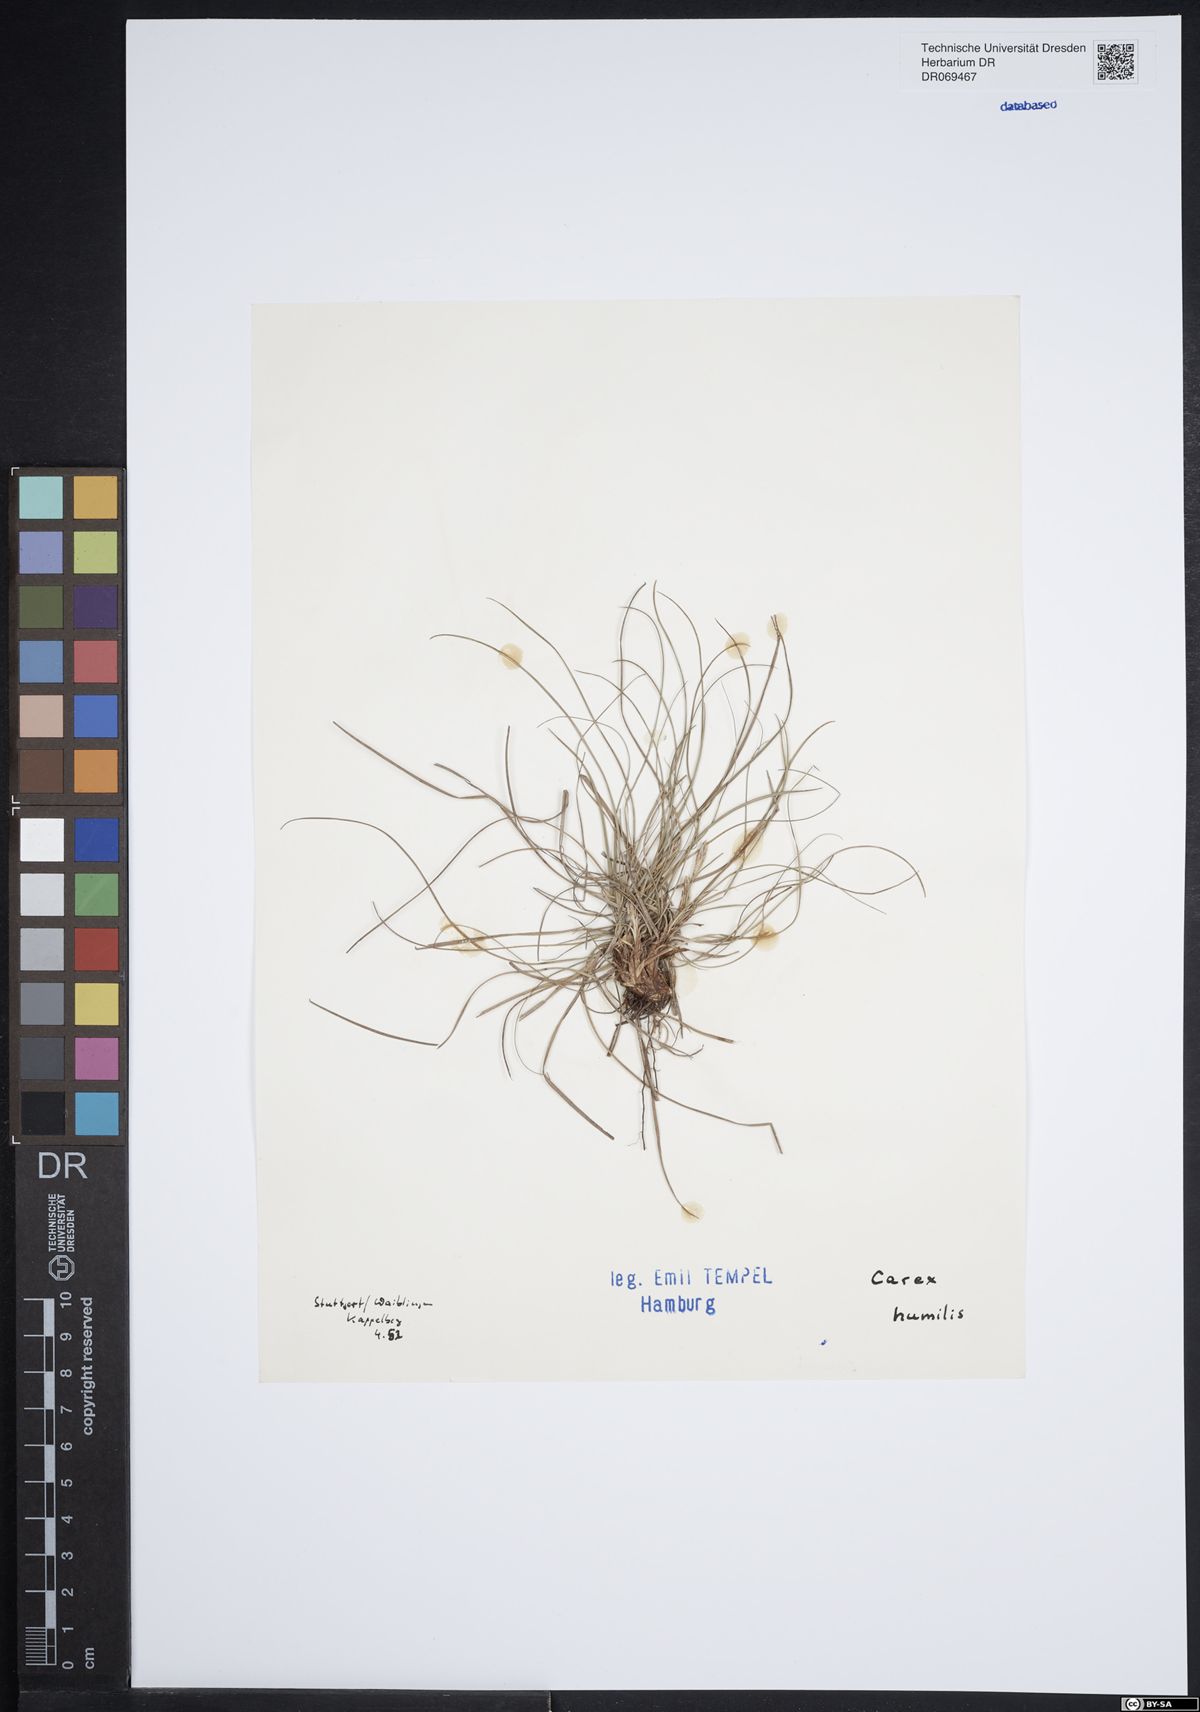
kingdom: Plantae
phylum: Tracheophyta
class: Liliopsida
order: Poales
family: Cyperaceae
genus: Carex
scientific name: Carex humilis
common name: Dwarf sedge
